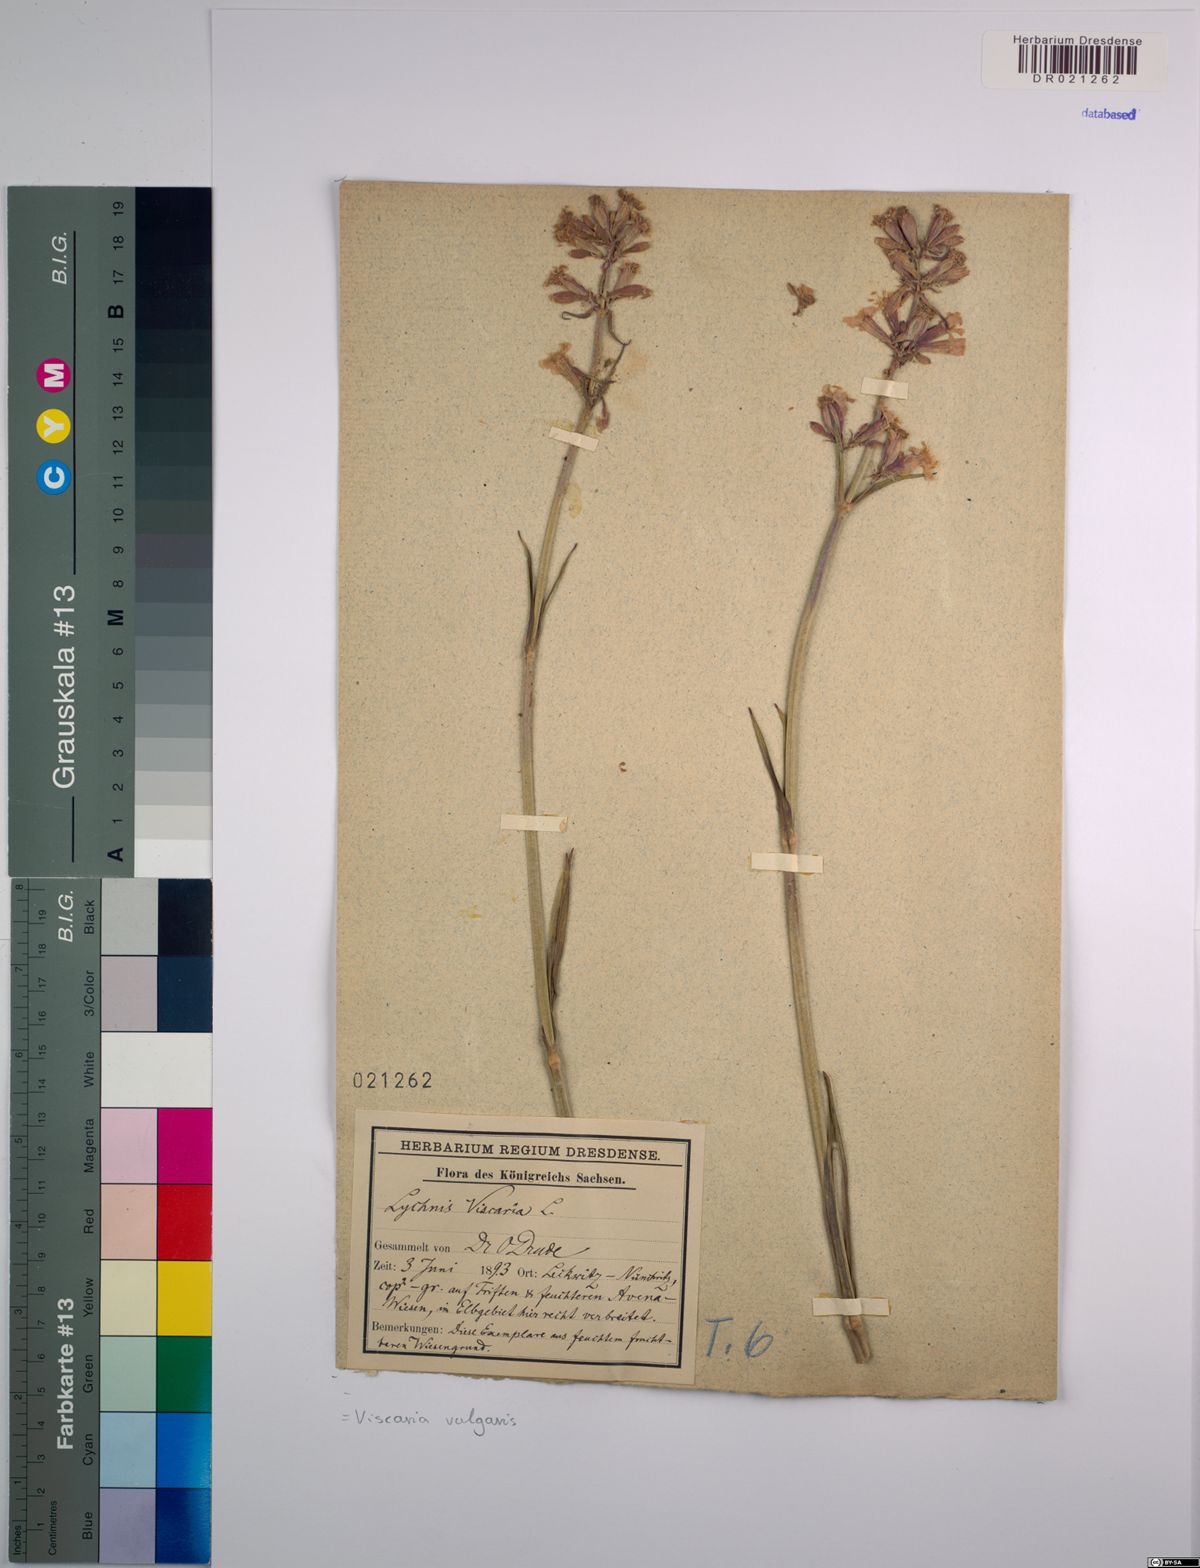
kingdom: Plantae
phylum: Tracheophyta
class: Magnoliopsida
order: Caryophyllales
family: Caryophyllaceae
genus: Viscaria
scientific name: Viscaria vulgaris
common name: Clammy campion
